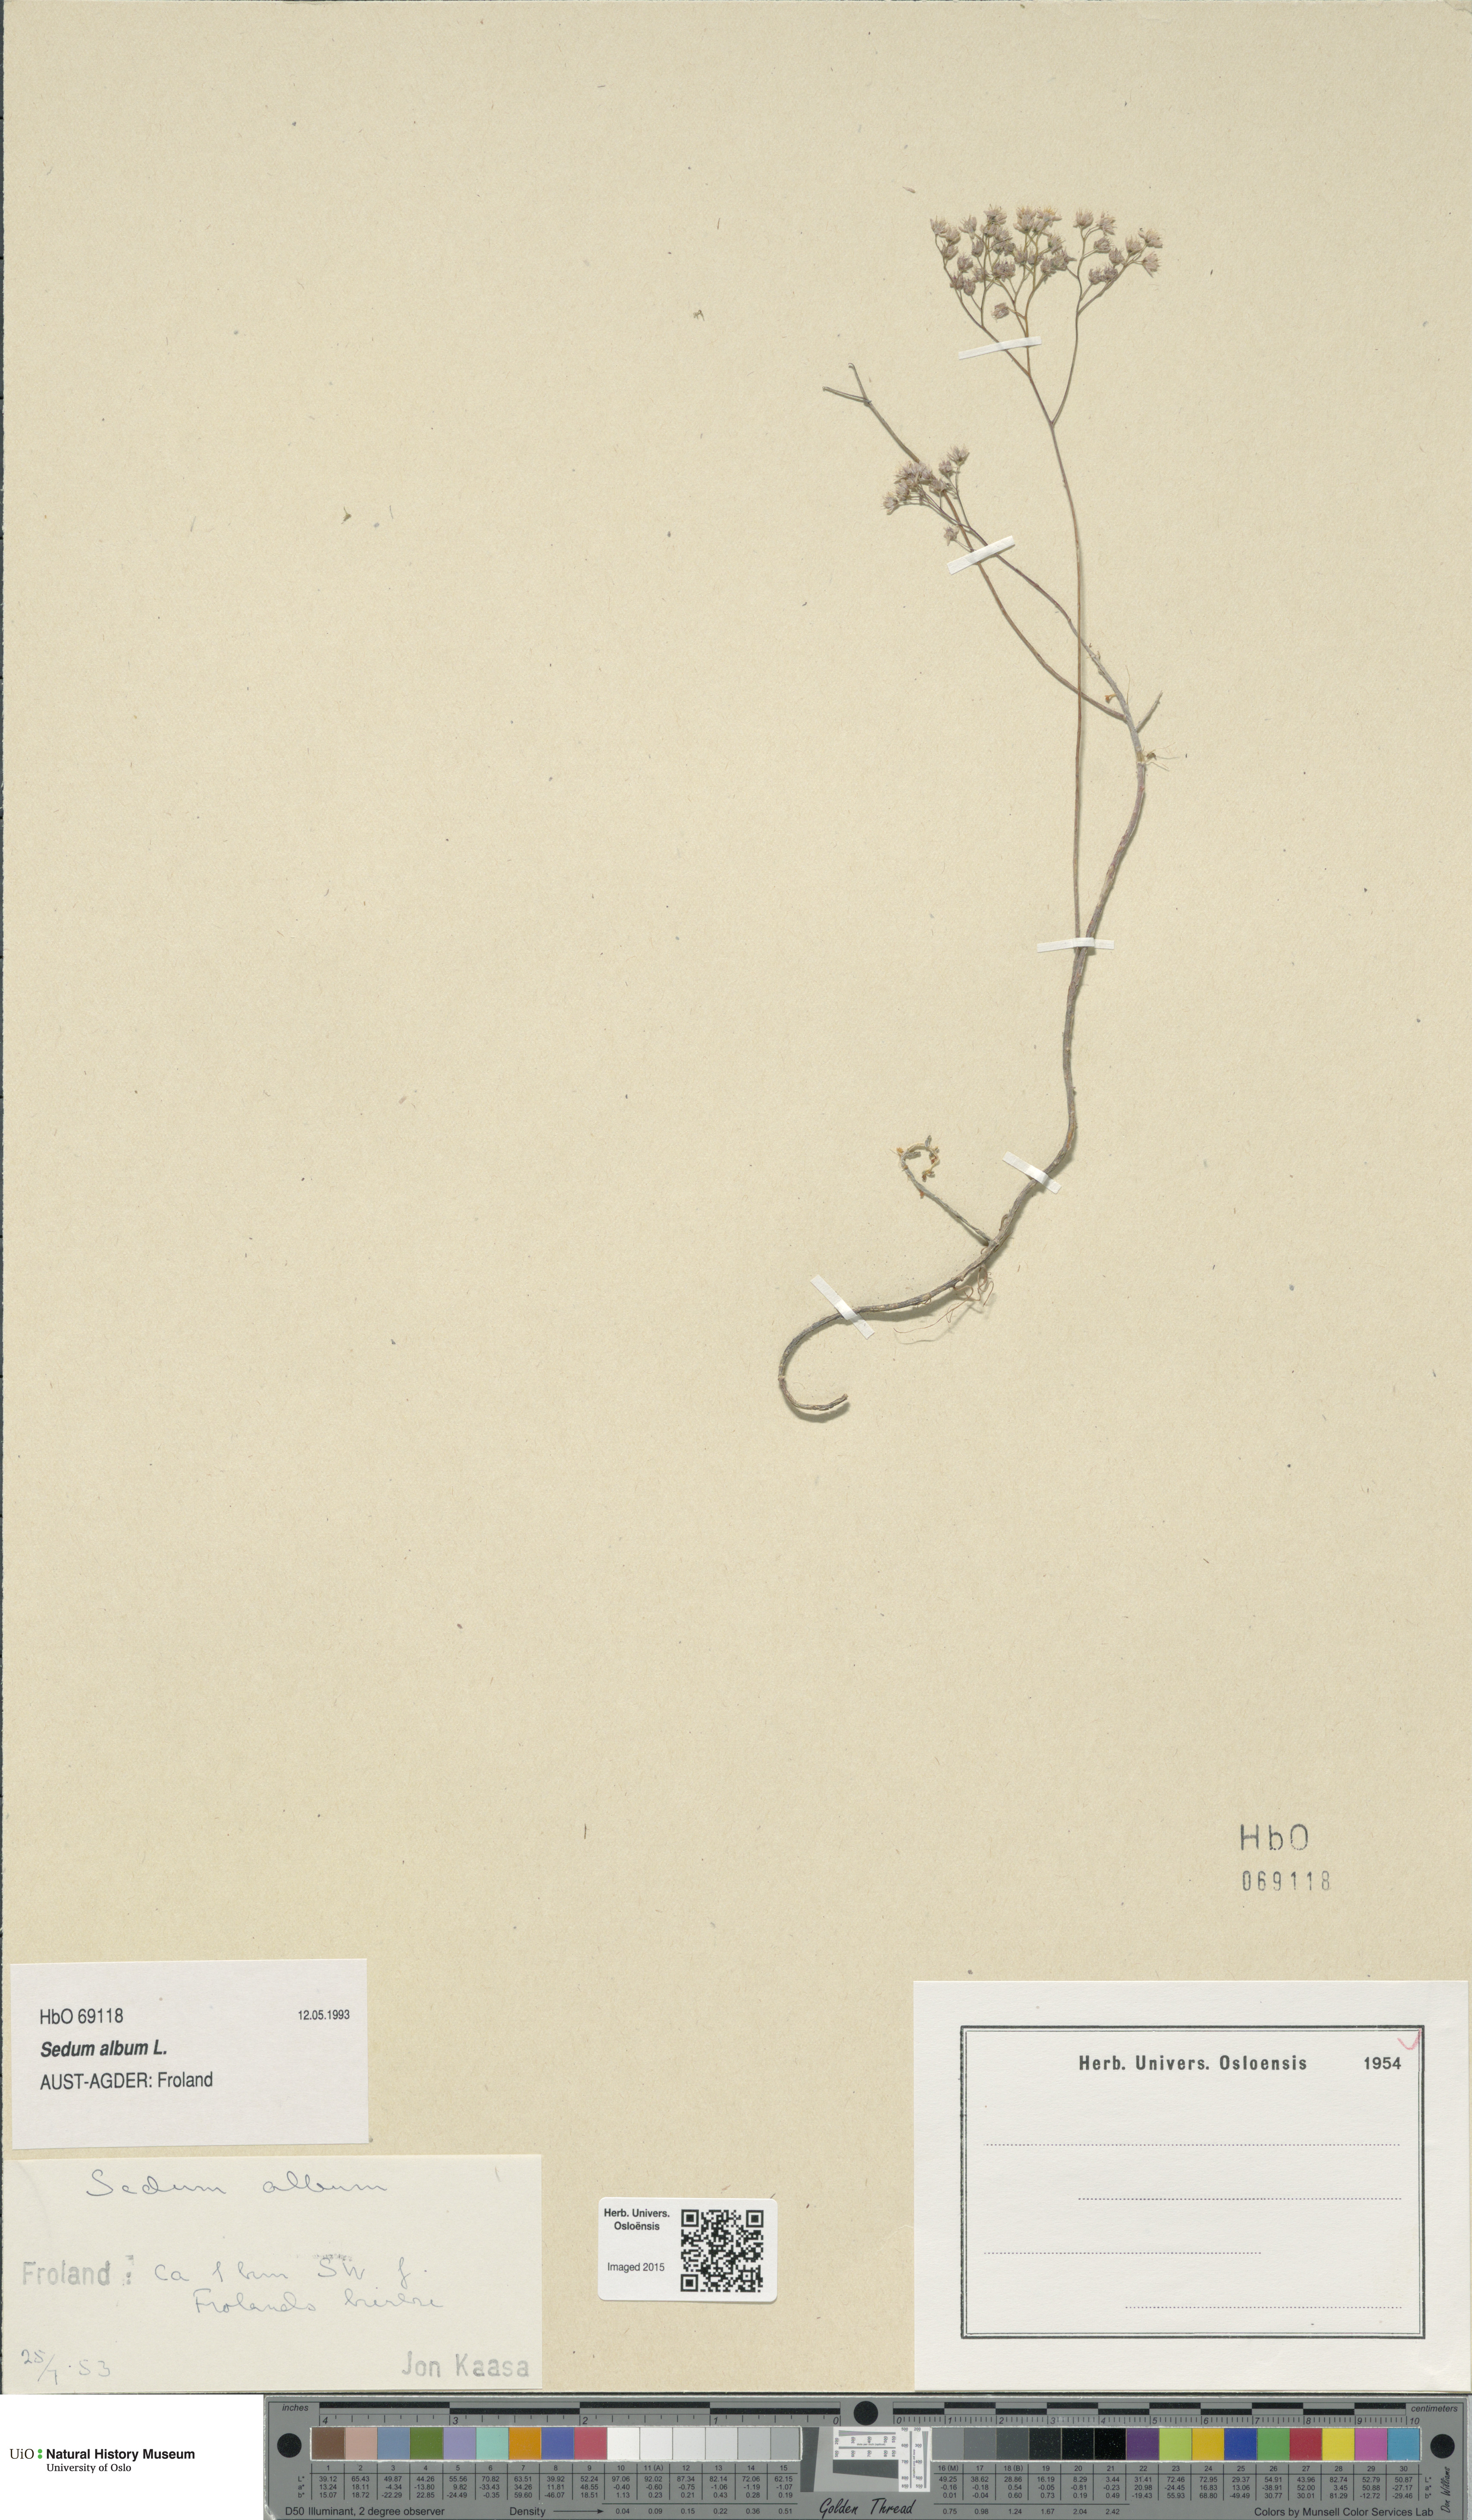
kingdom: Plantae
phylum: Tracheophyta
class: Magnoliopsida
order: Saxifragales
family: Crassulaceae
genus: Sedum
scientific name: Sedum album
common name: White stonecrop
